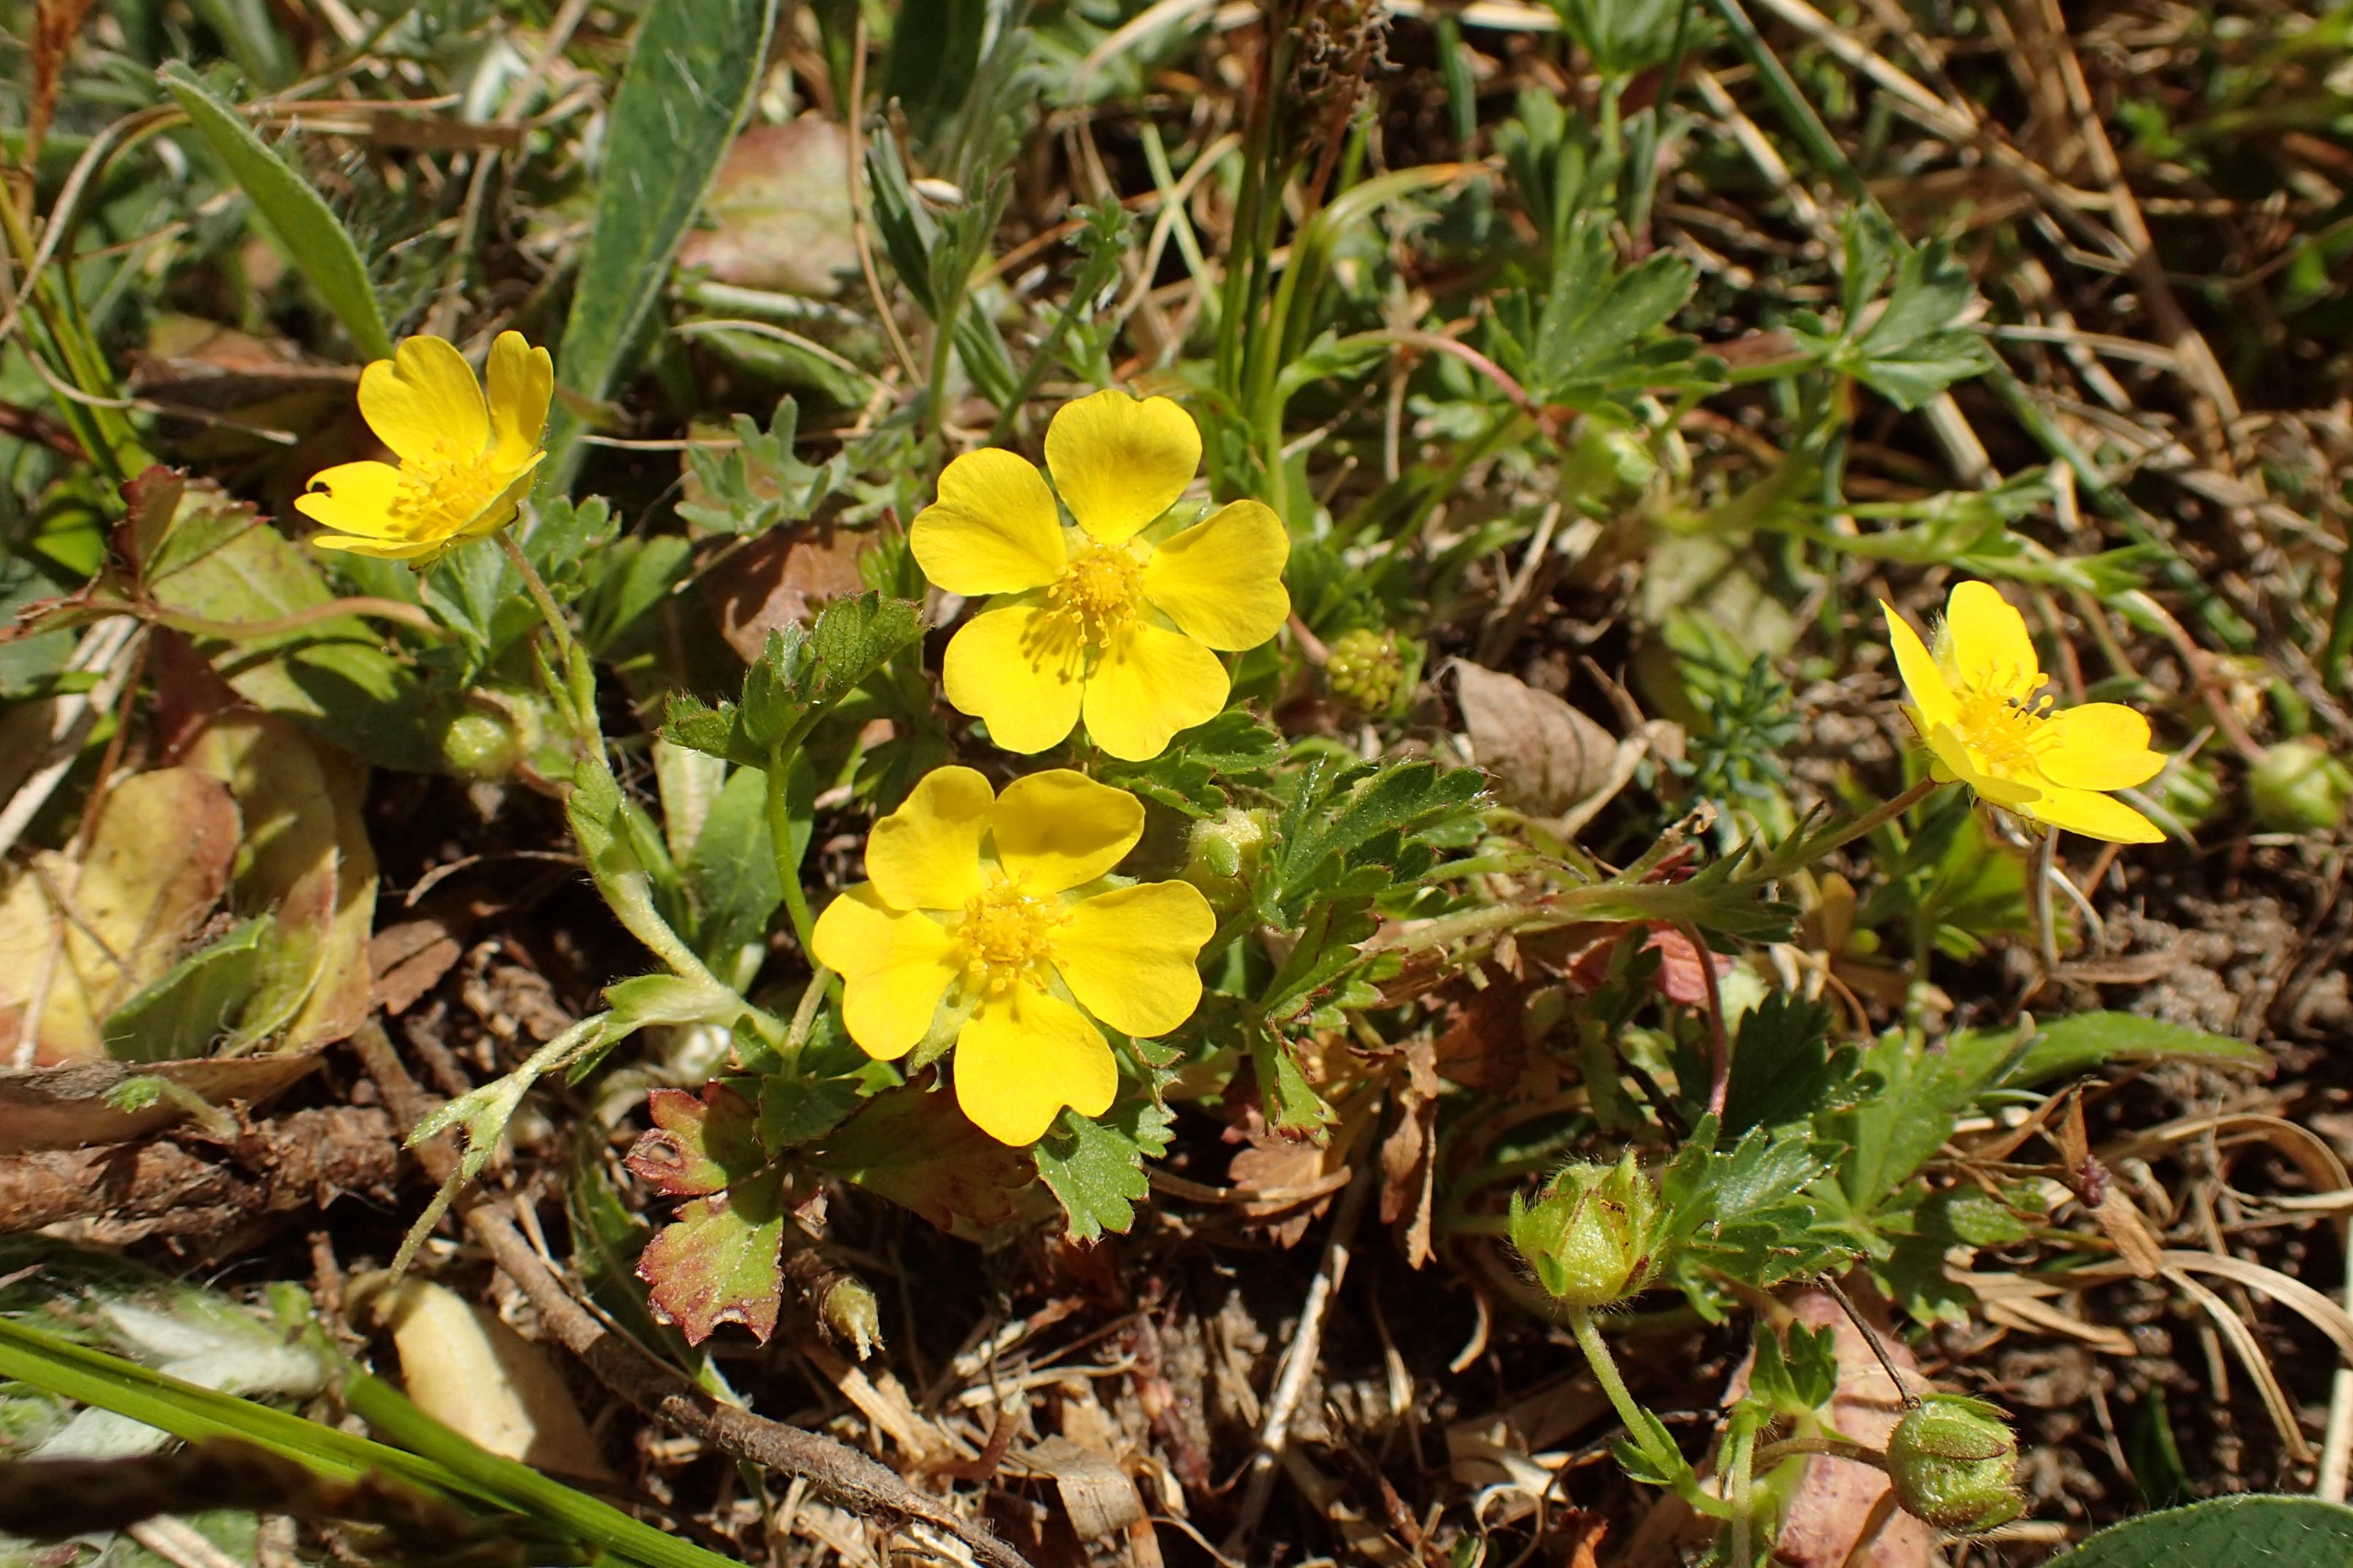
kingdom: Plantae
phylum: Tracheophyta
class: Magnoliopsida
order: Rosales
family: Rosaceae
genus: Potentilla
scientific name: Potentilla verna
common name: Vår-potentil
